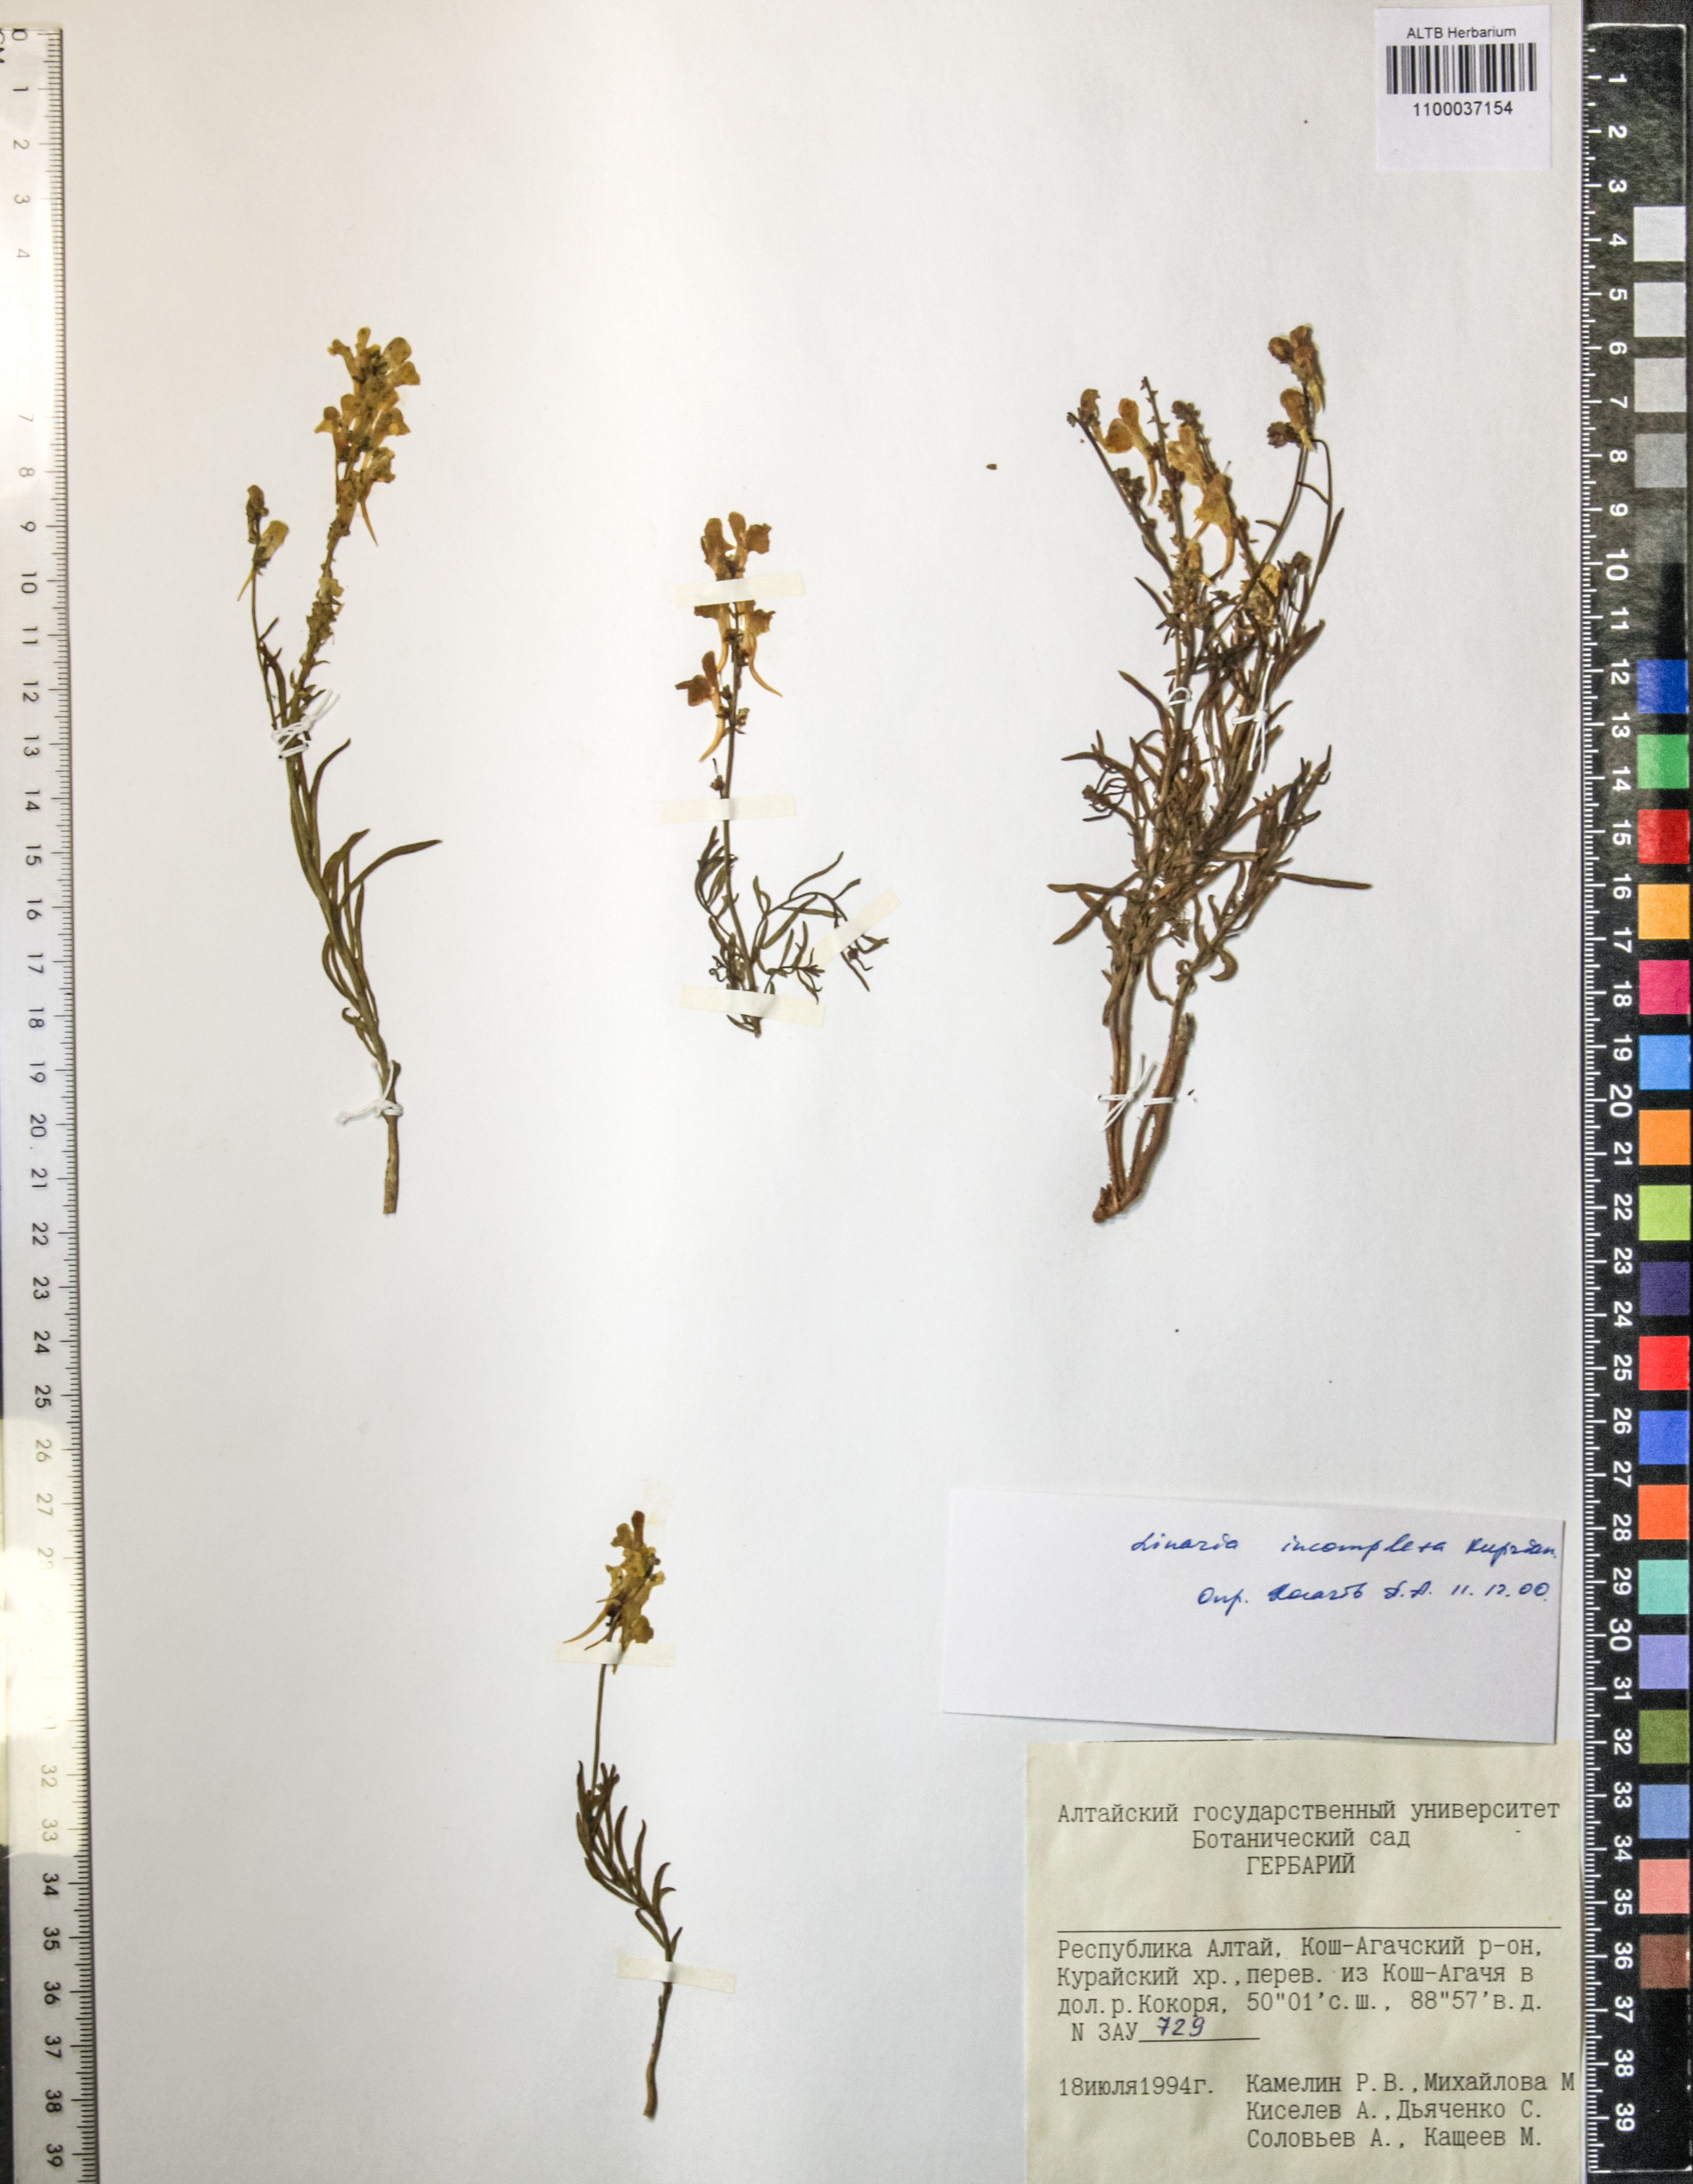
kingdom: Plantae
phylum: Tracheophyta
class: Magnoliopsida
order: Lamiales
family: Plantaginaceae
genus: Linaria
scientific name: Linaria incompleta
